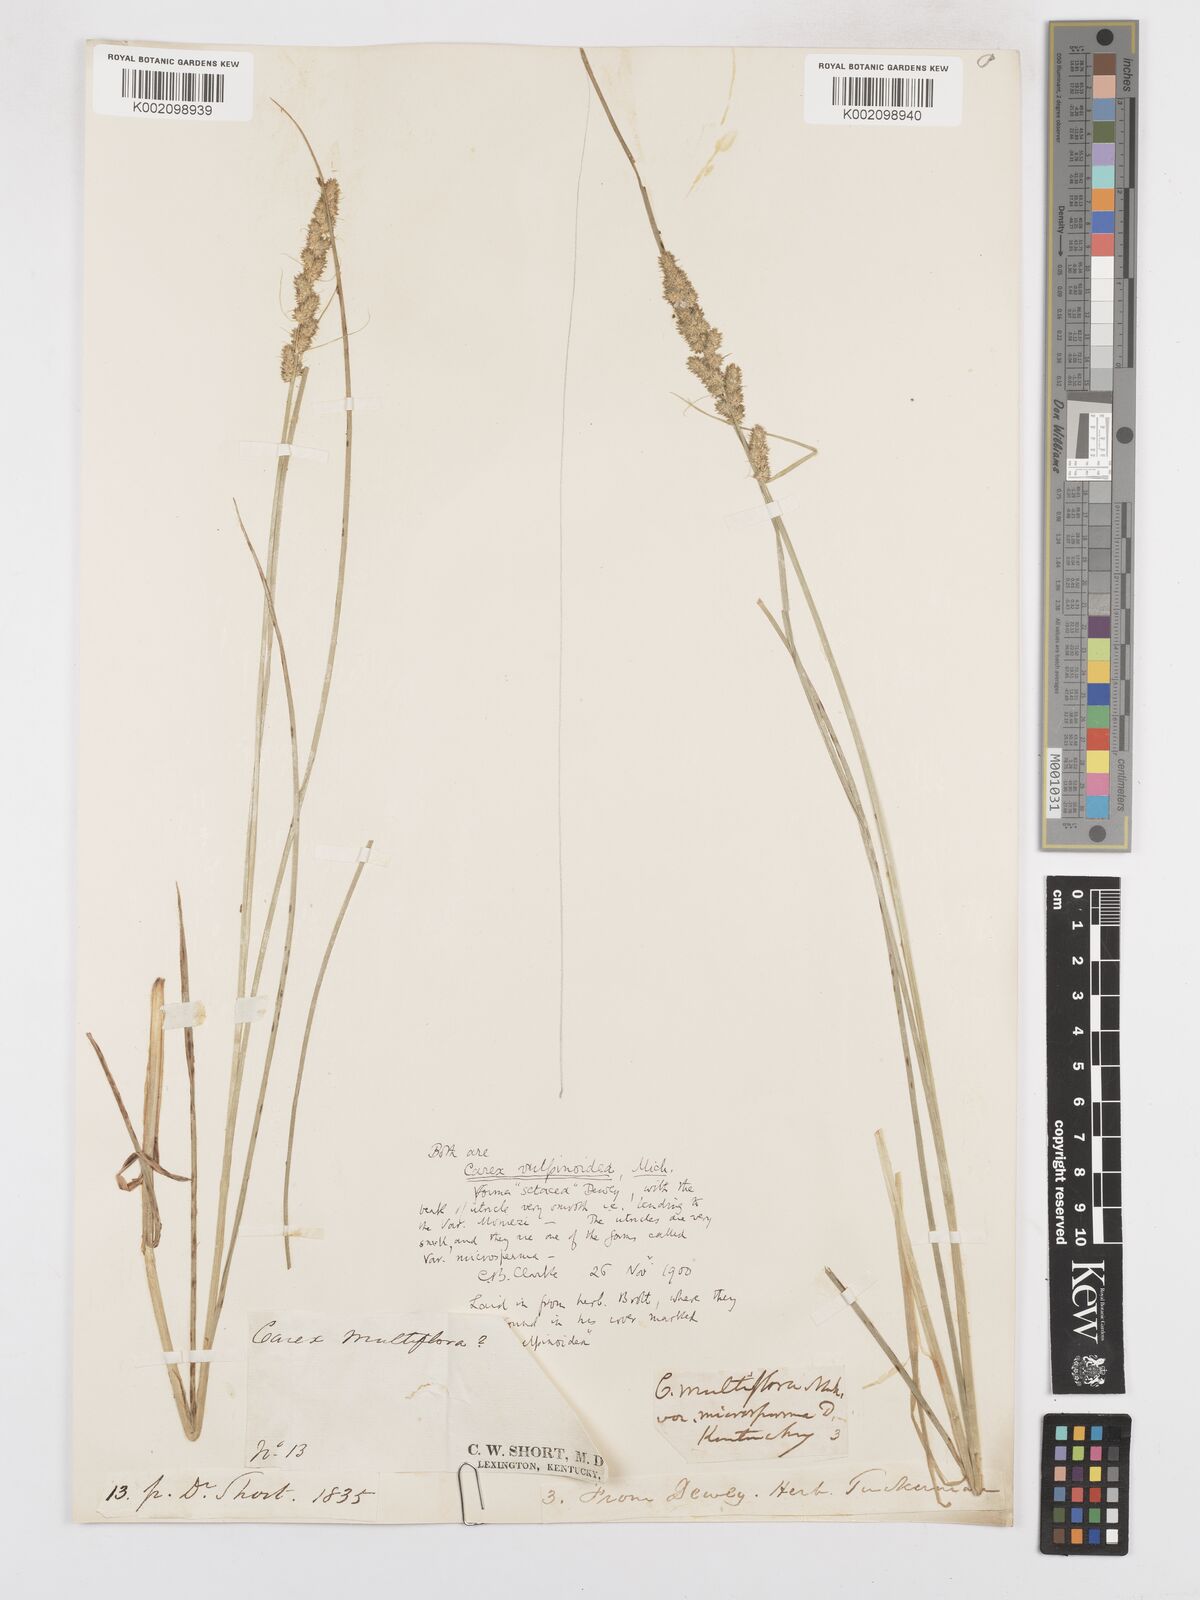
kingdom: Plantae
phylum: Tracheophyta
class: Liliopsida
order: Poales
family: Cyperaceae
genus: Carex
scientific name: Carex vulpinoidea
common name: American fox-sedge
